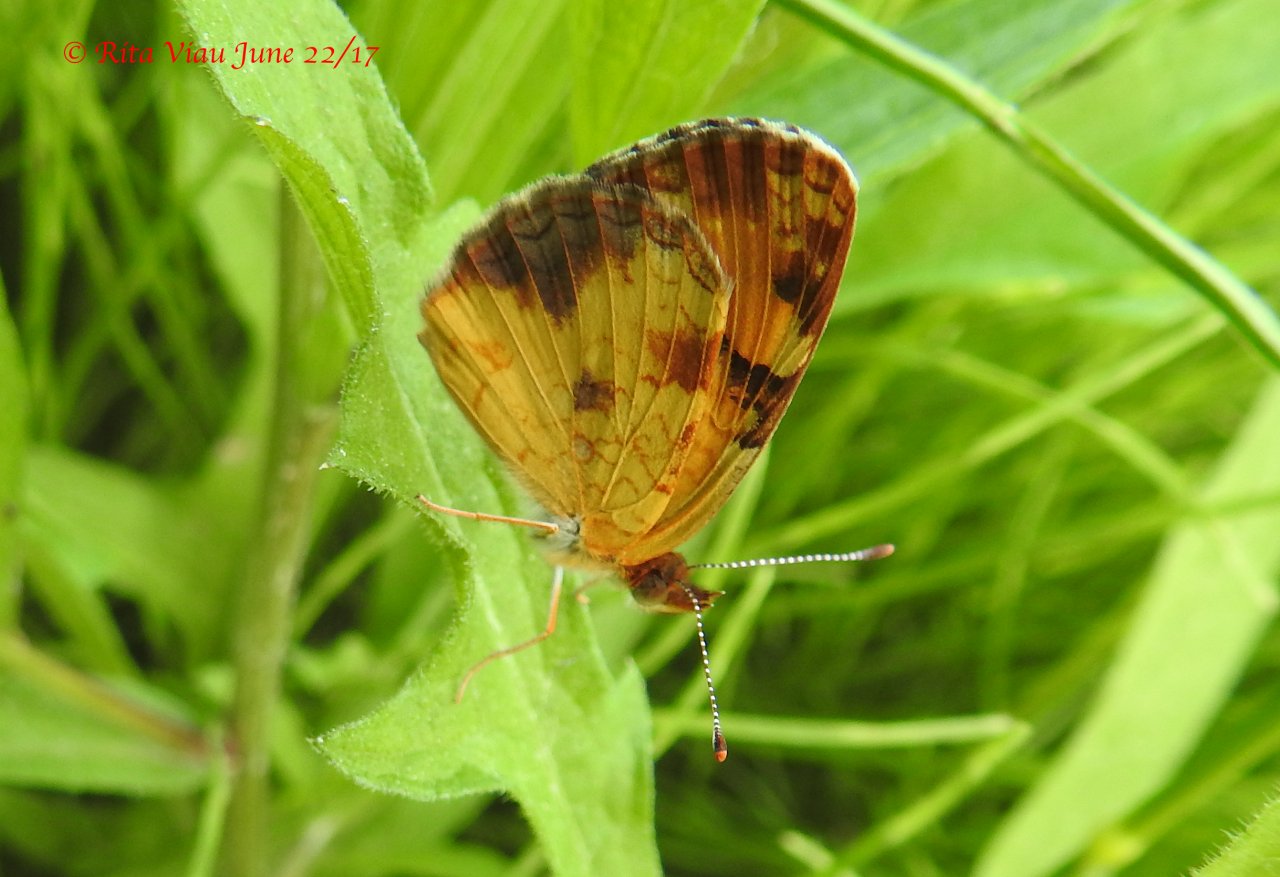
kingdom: Animalia
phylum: Arthropoda
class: Insecta
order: Lepidoptera
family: Nymphalidae
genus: Phyciodes
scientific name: Phyciodes tharos
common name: Northern Crescent
